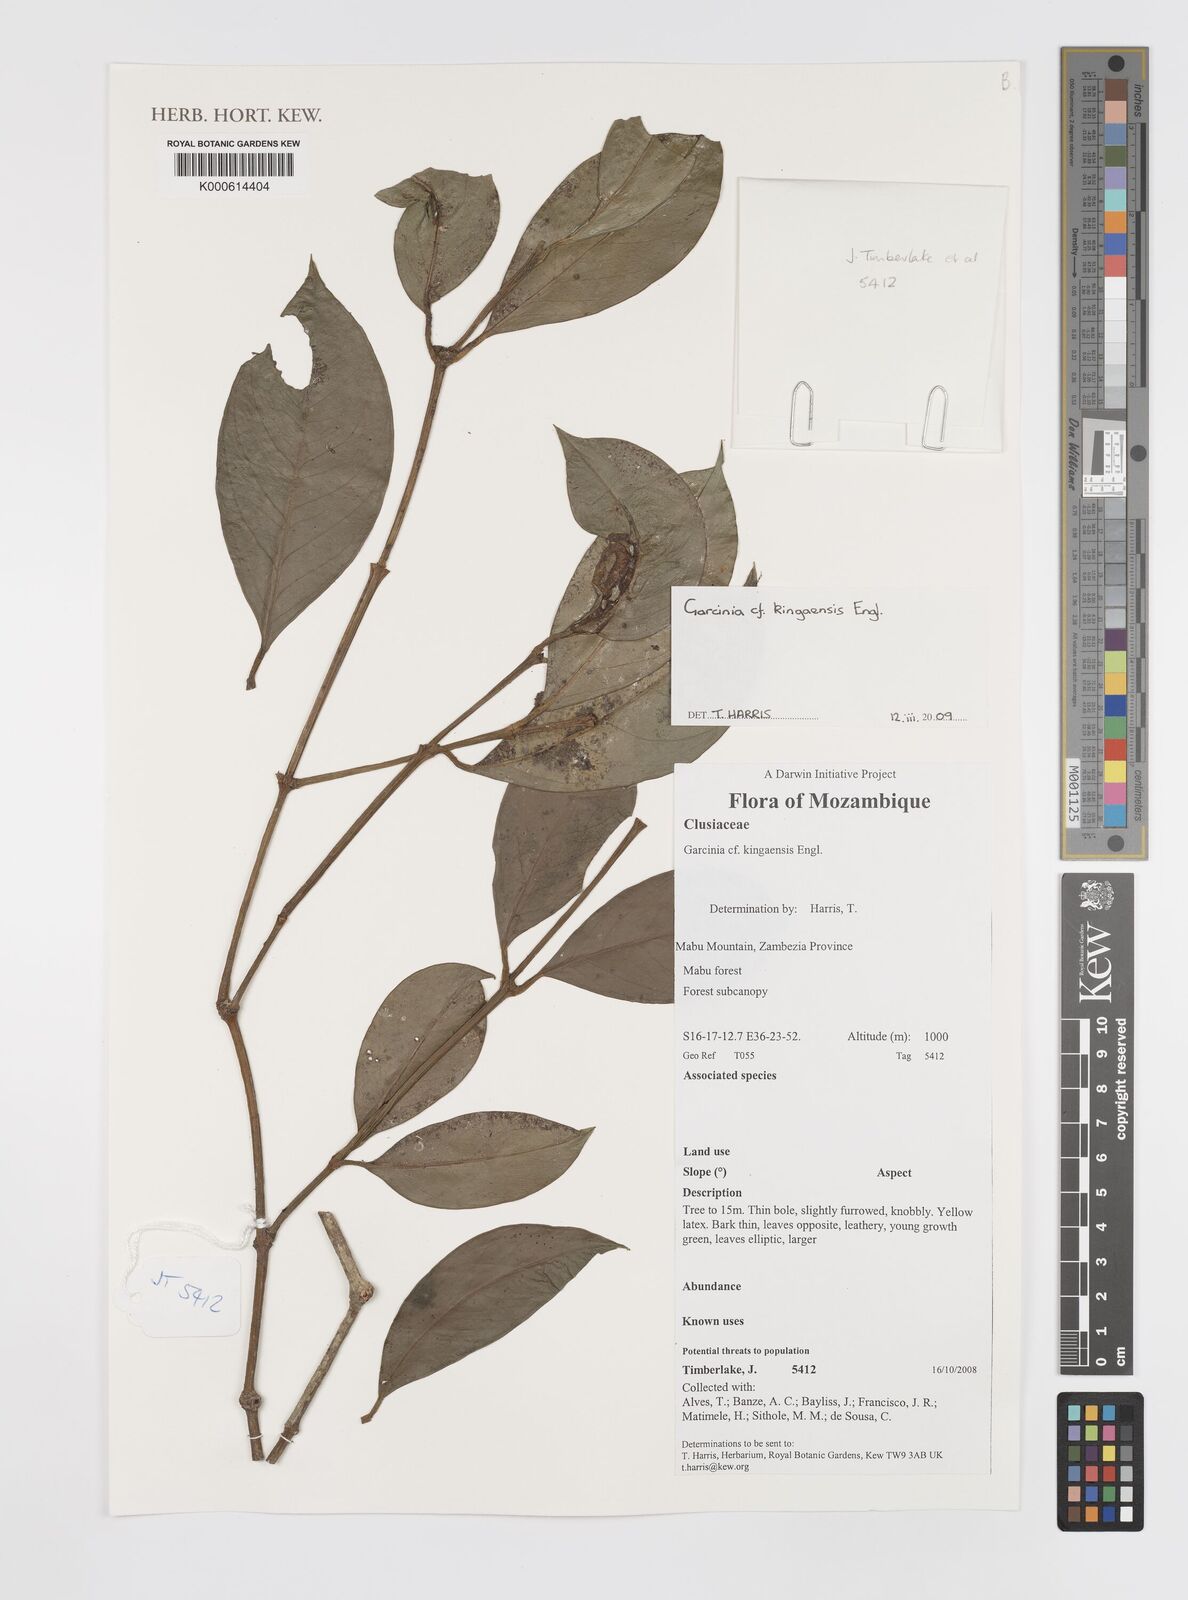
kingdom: Plantae
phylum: Tracheophyta
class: Magnoliopsida
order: Malpighiales
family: Clusiaceae
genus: Garcinia
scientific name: Garcinia kingaensis
